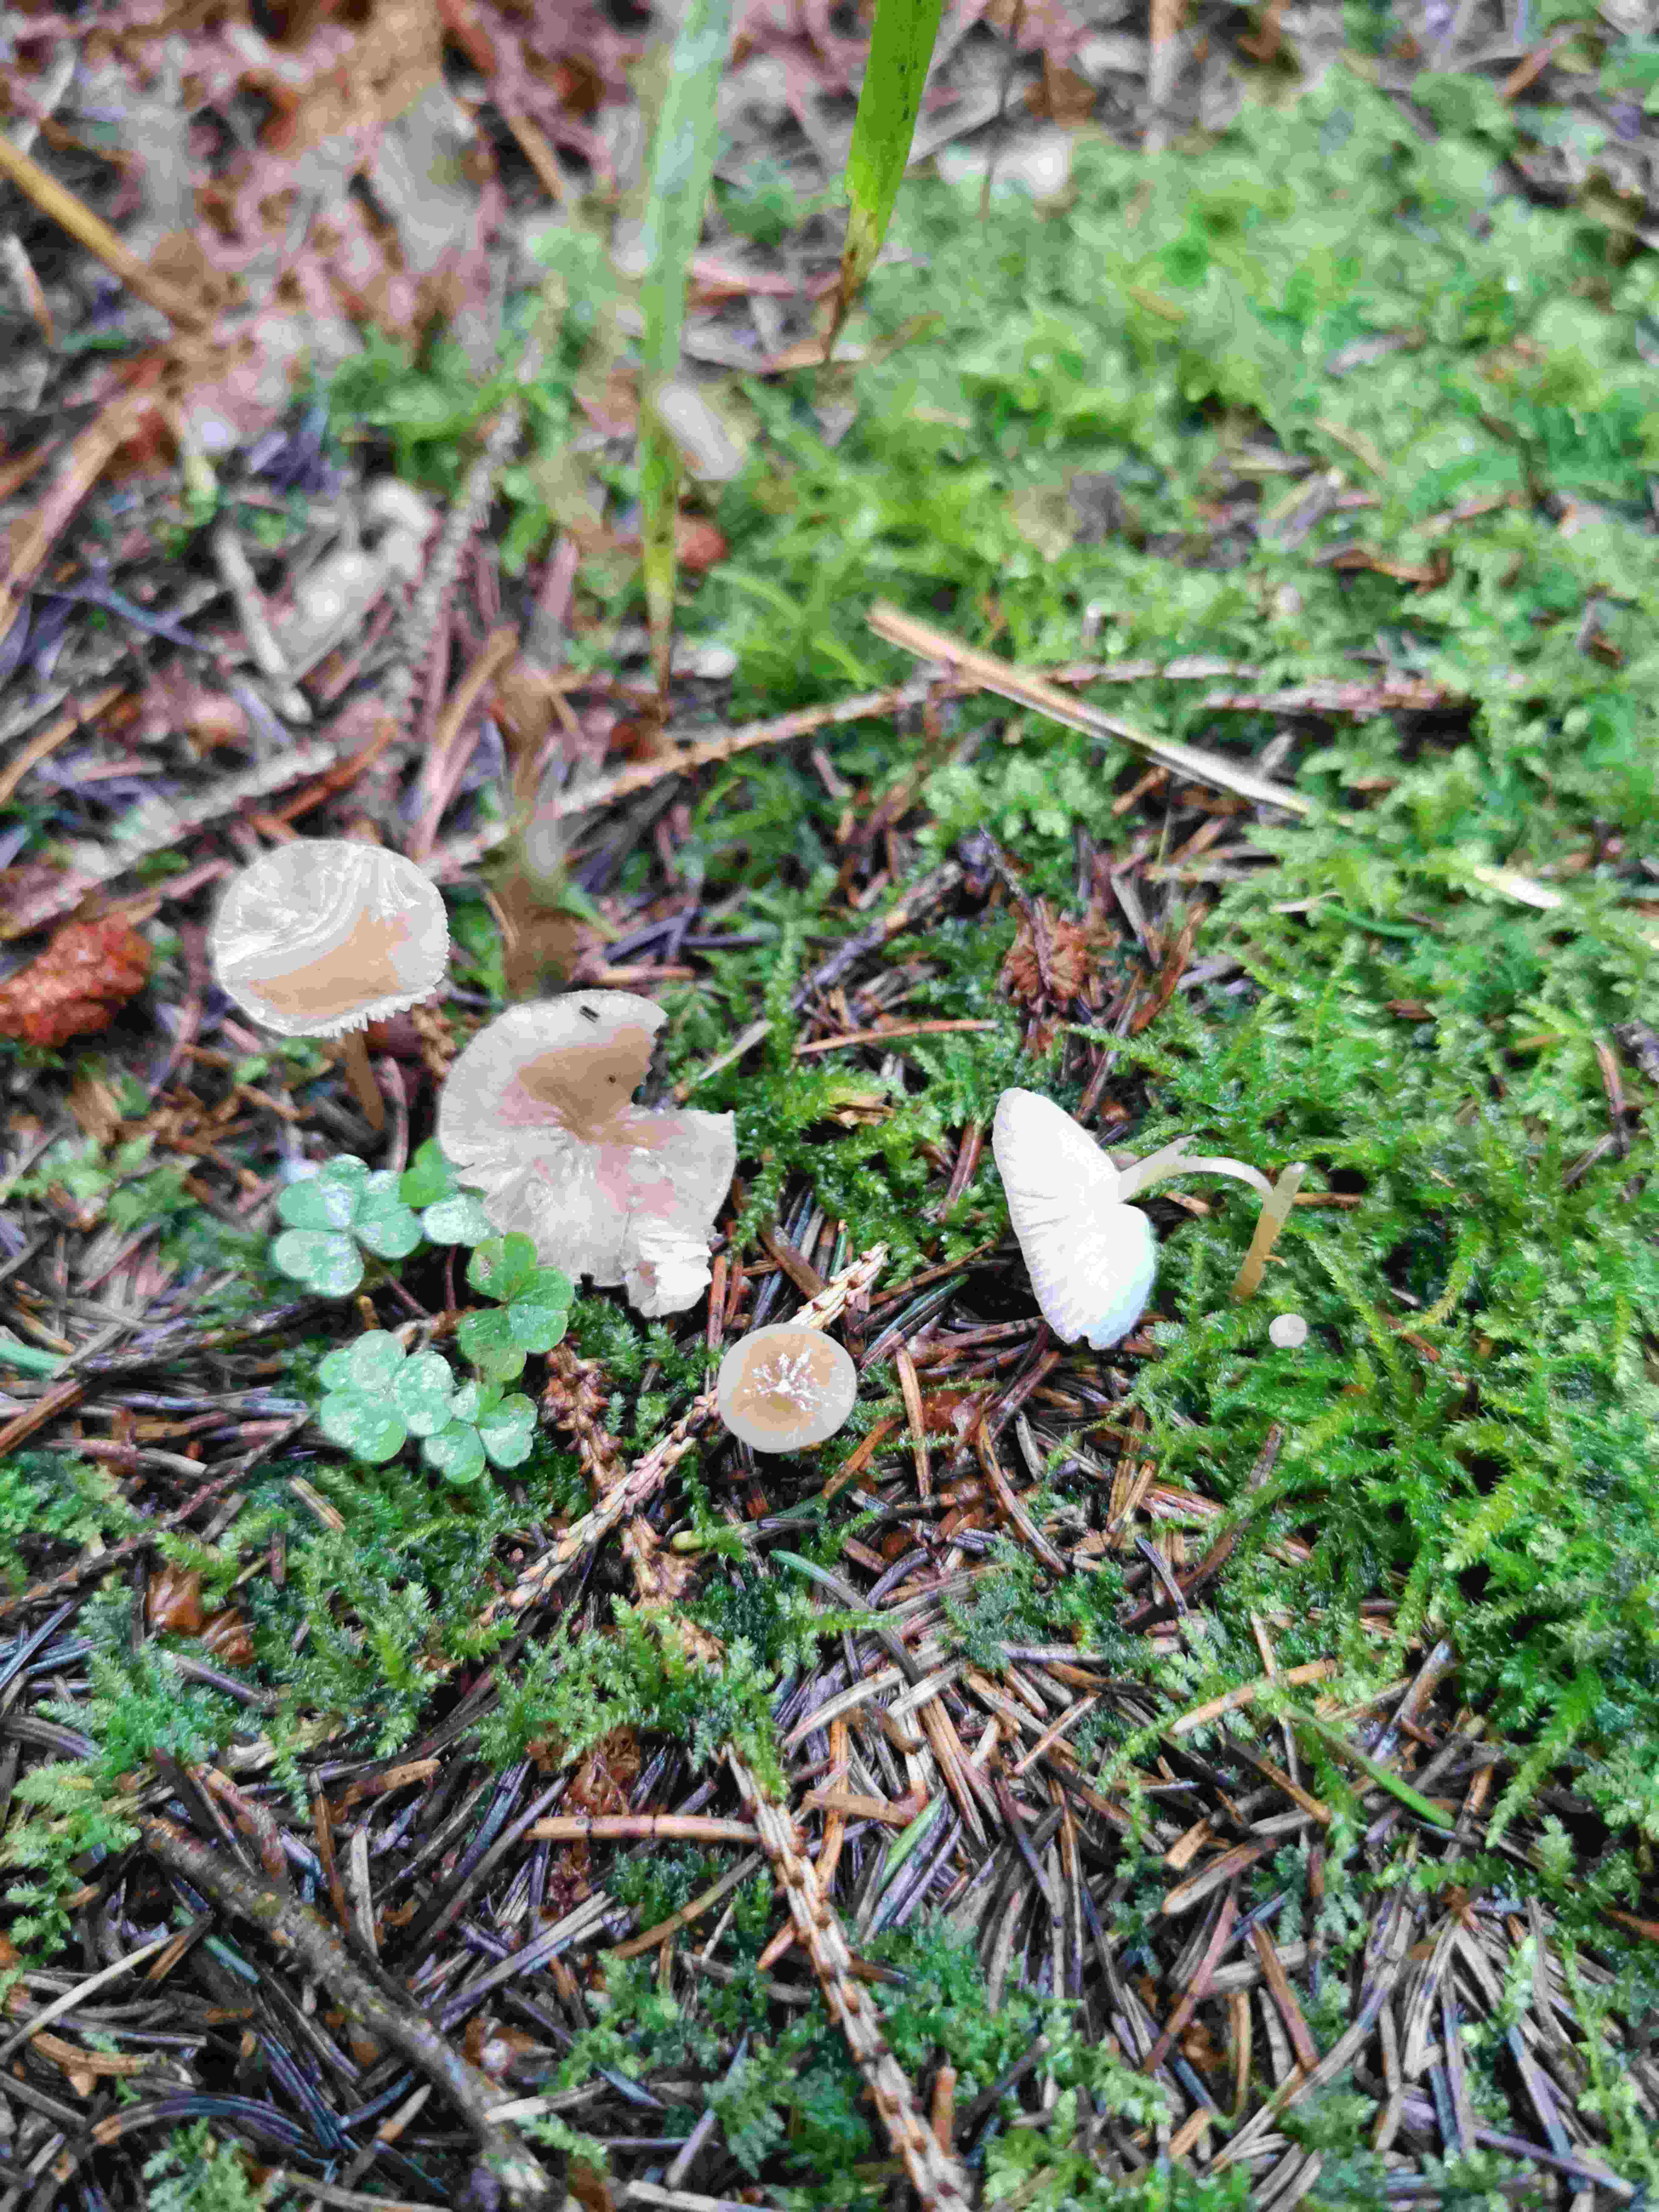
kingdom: Fungi
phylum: Basidiomycota
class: Agaricomycetes
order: Agaricales
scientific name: Agaricales
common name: champignonordenen
